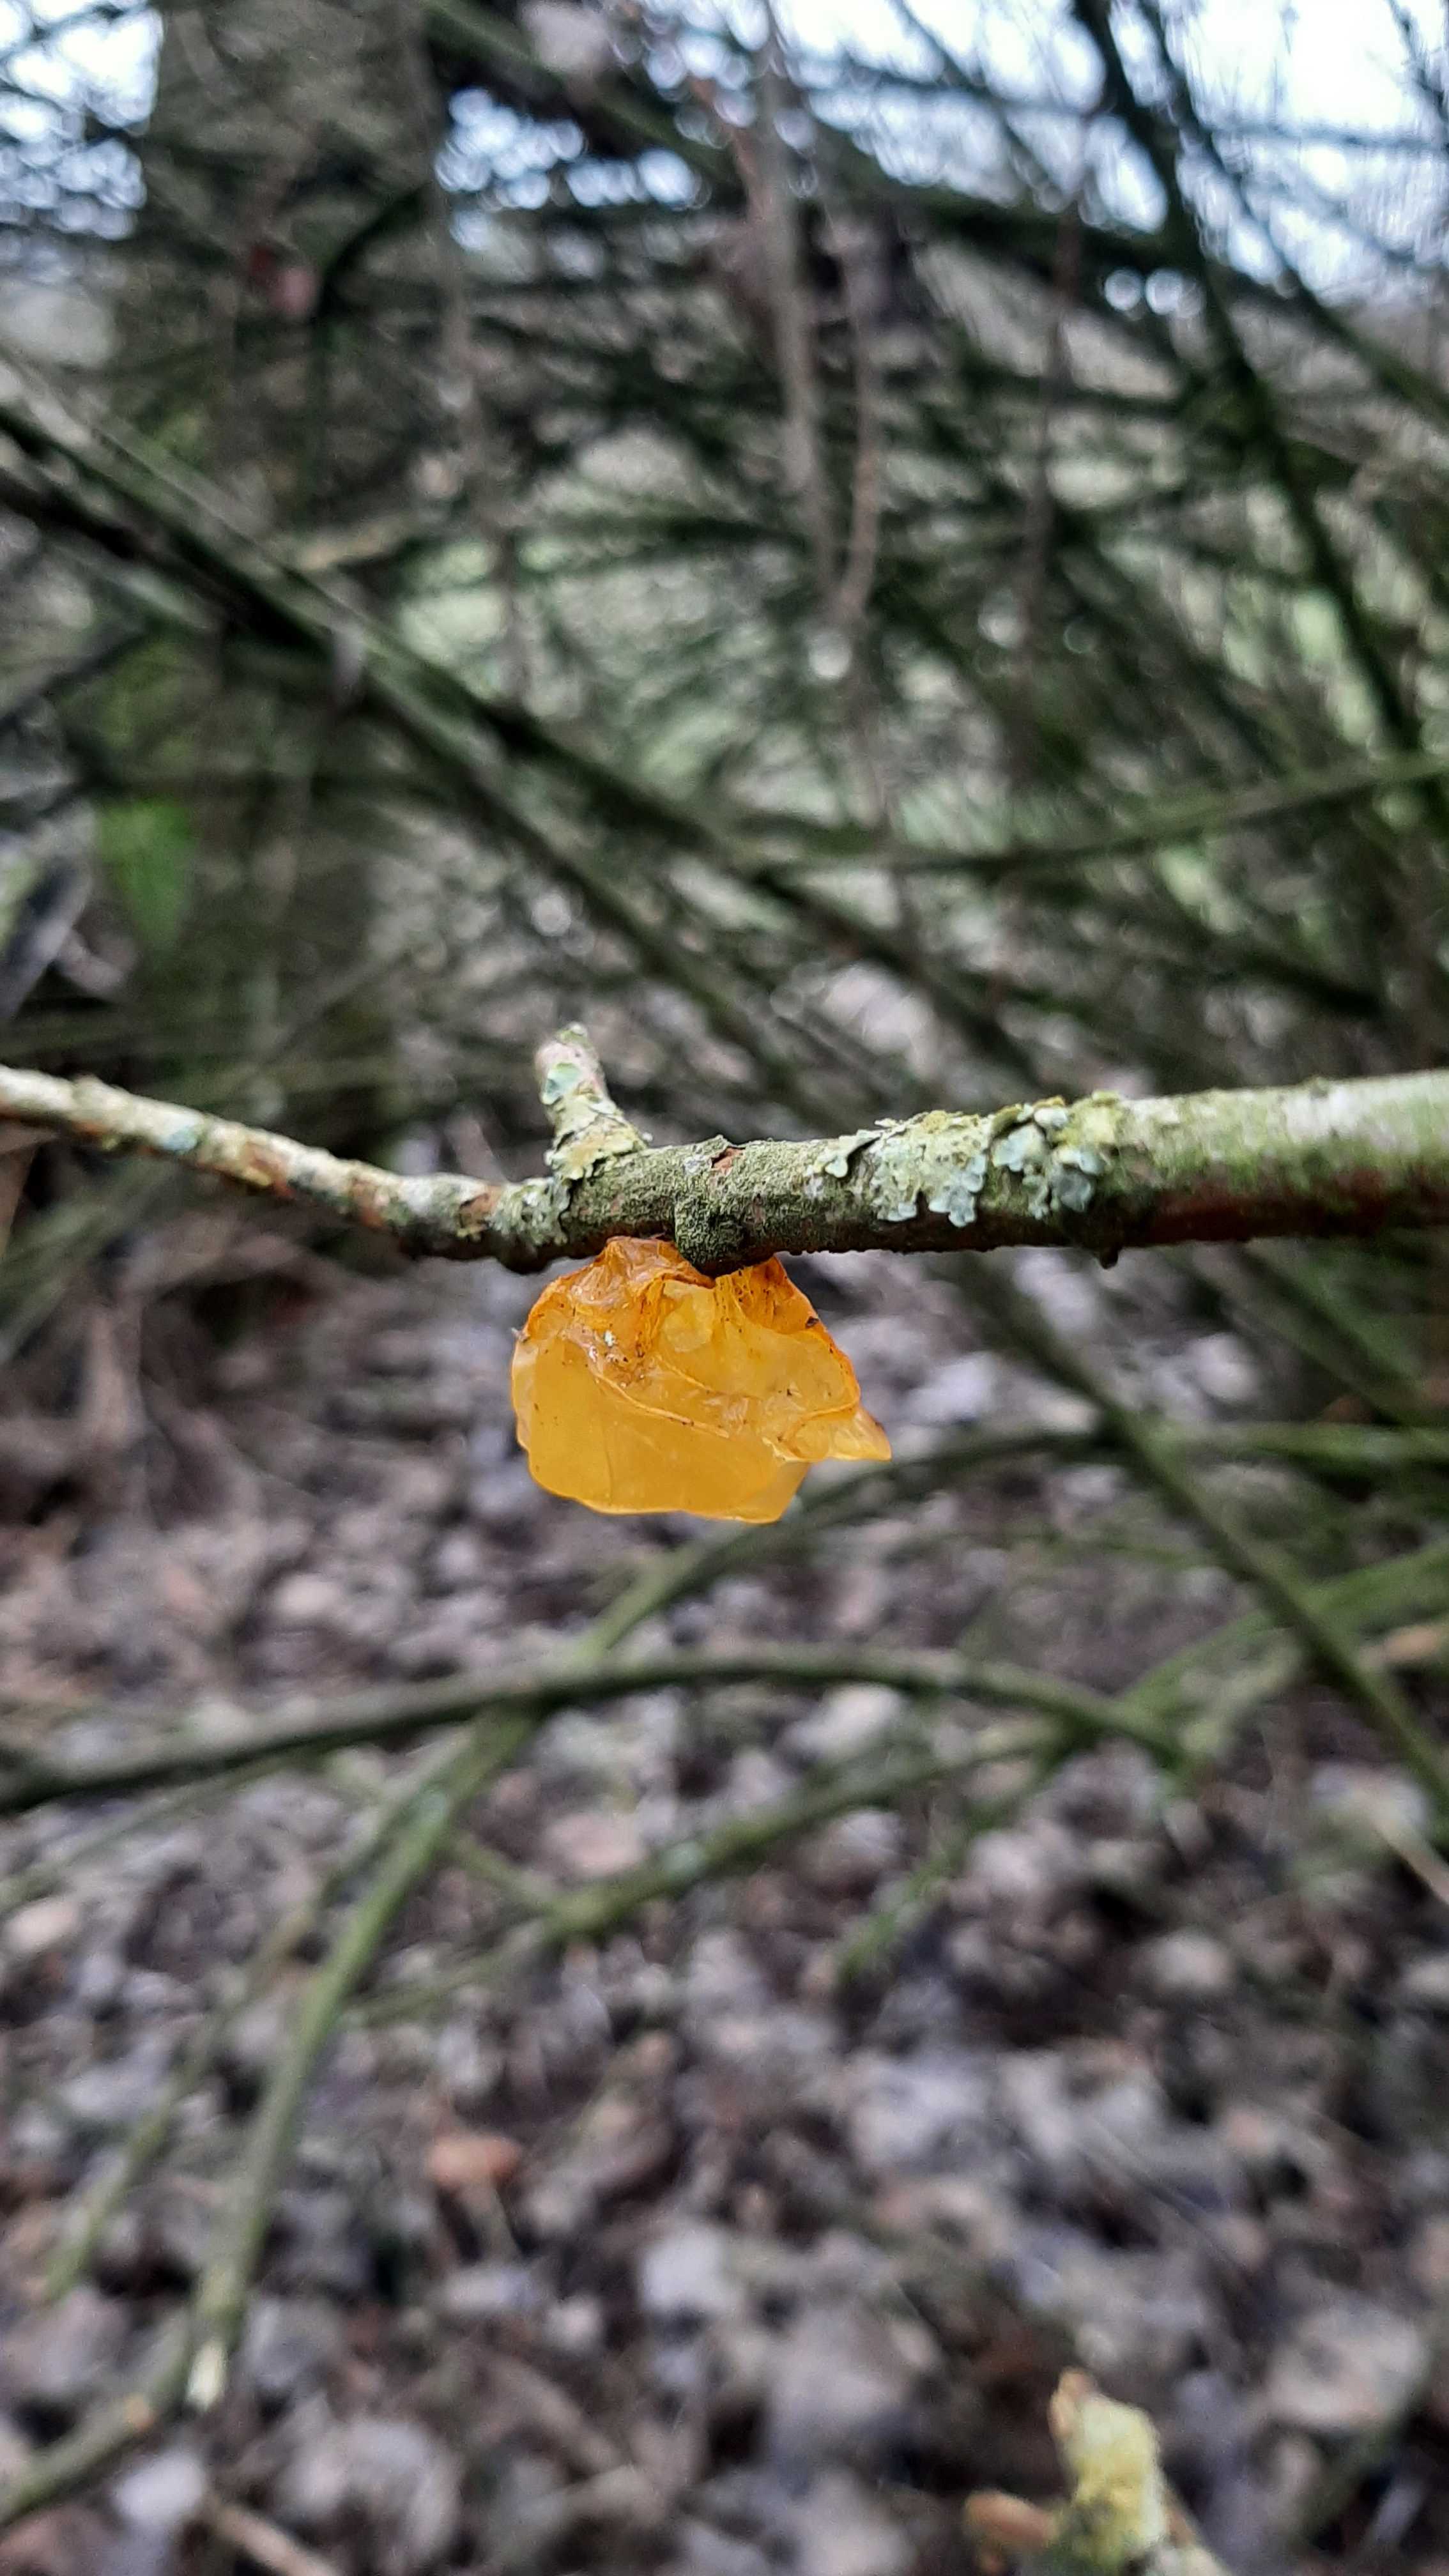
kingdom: Fungi
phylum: Basidiomycota
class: Tremellomycetes
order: Tremellales
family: Tremellaceae
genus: Tremella
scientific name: Tremella mesenterica
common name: gul bævresvamp
